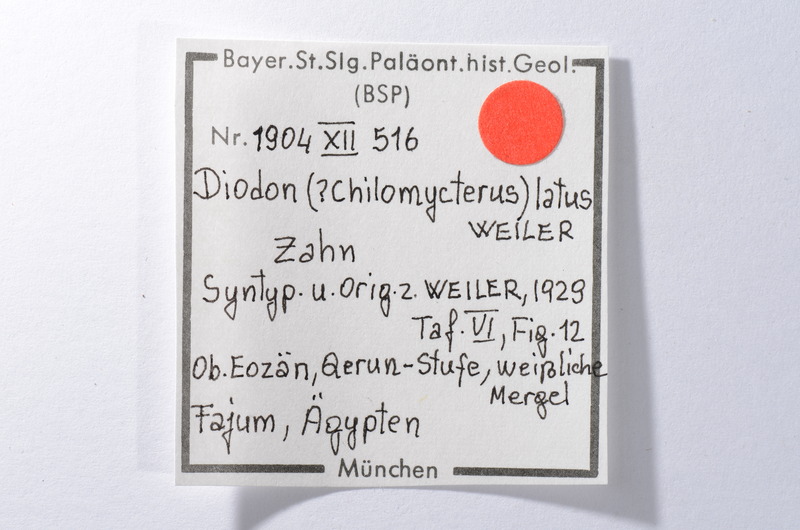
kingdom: Animalia
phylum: Chordata
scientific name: Chordata
